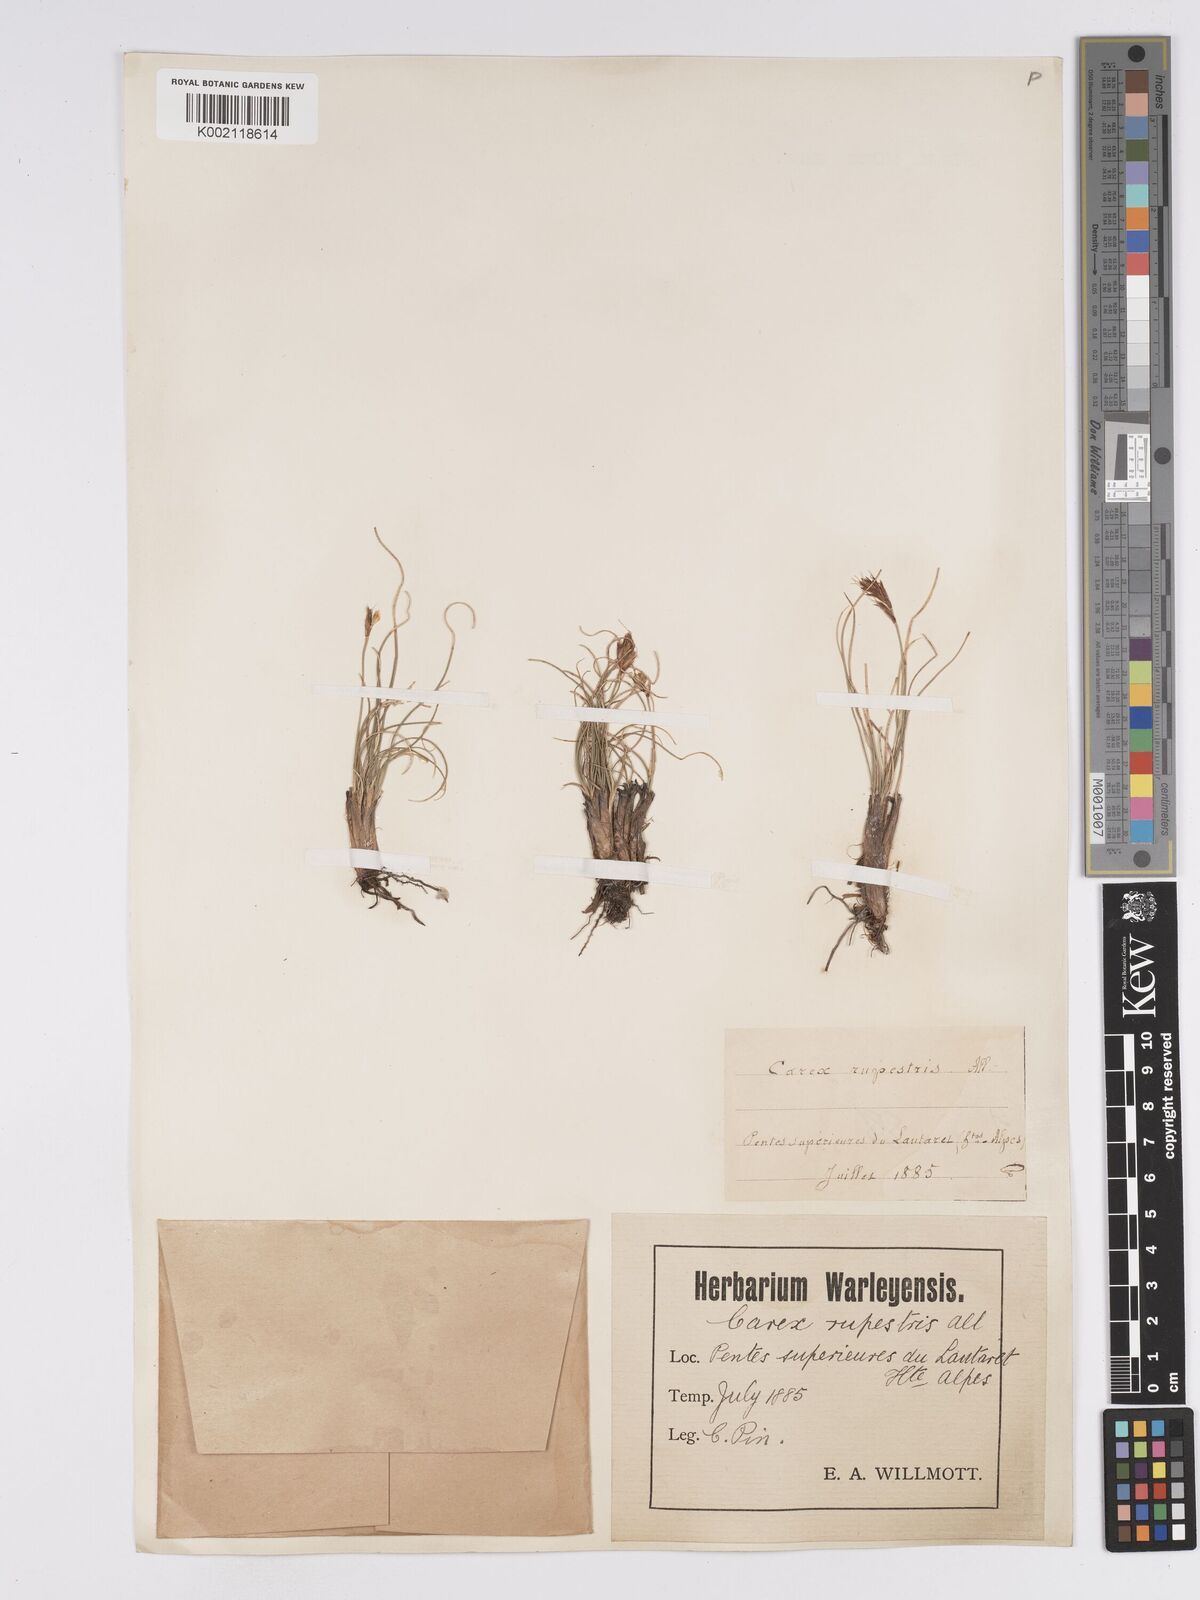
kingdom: Plantae
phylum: Tracheophyta
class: Liliopsida
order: Poales
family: Cyperaceae
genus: Carex
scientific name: Carex curvula
